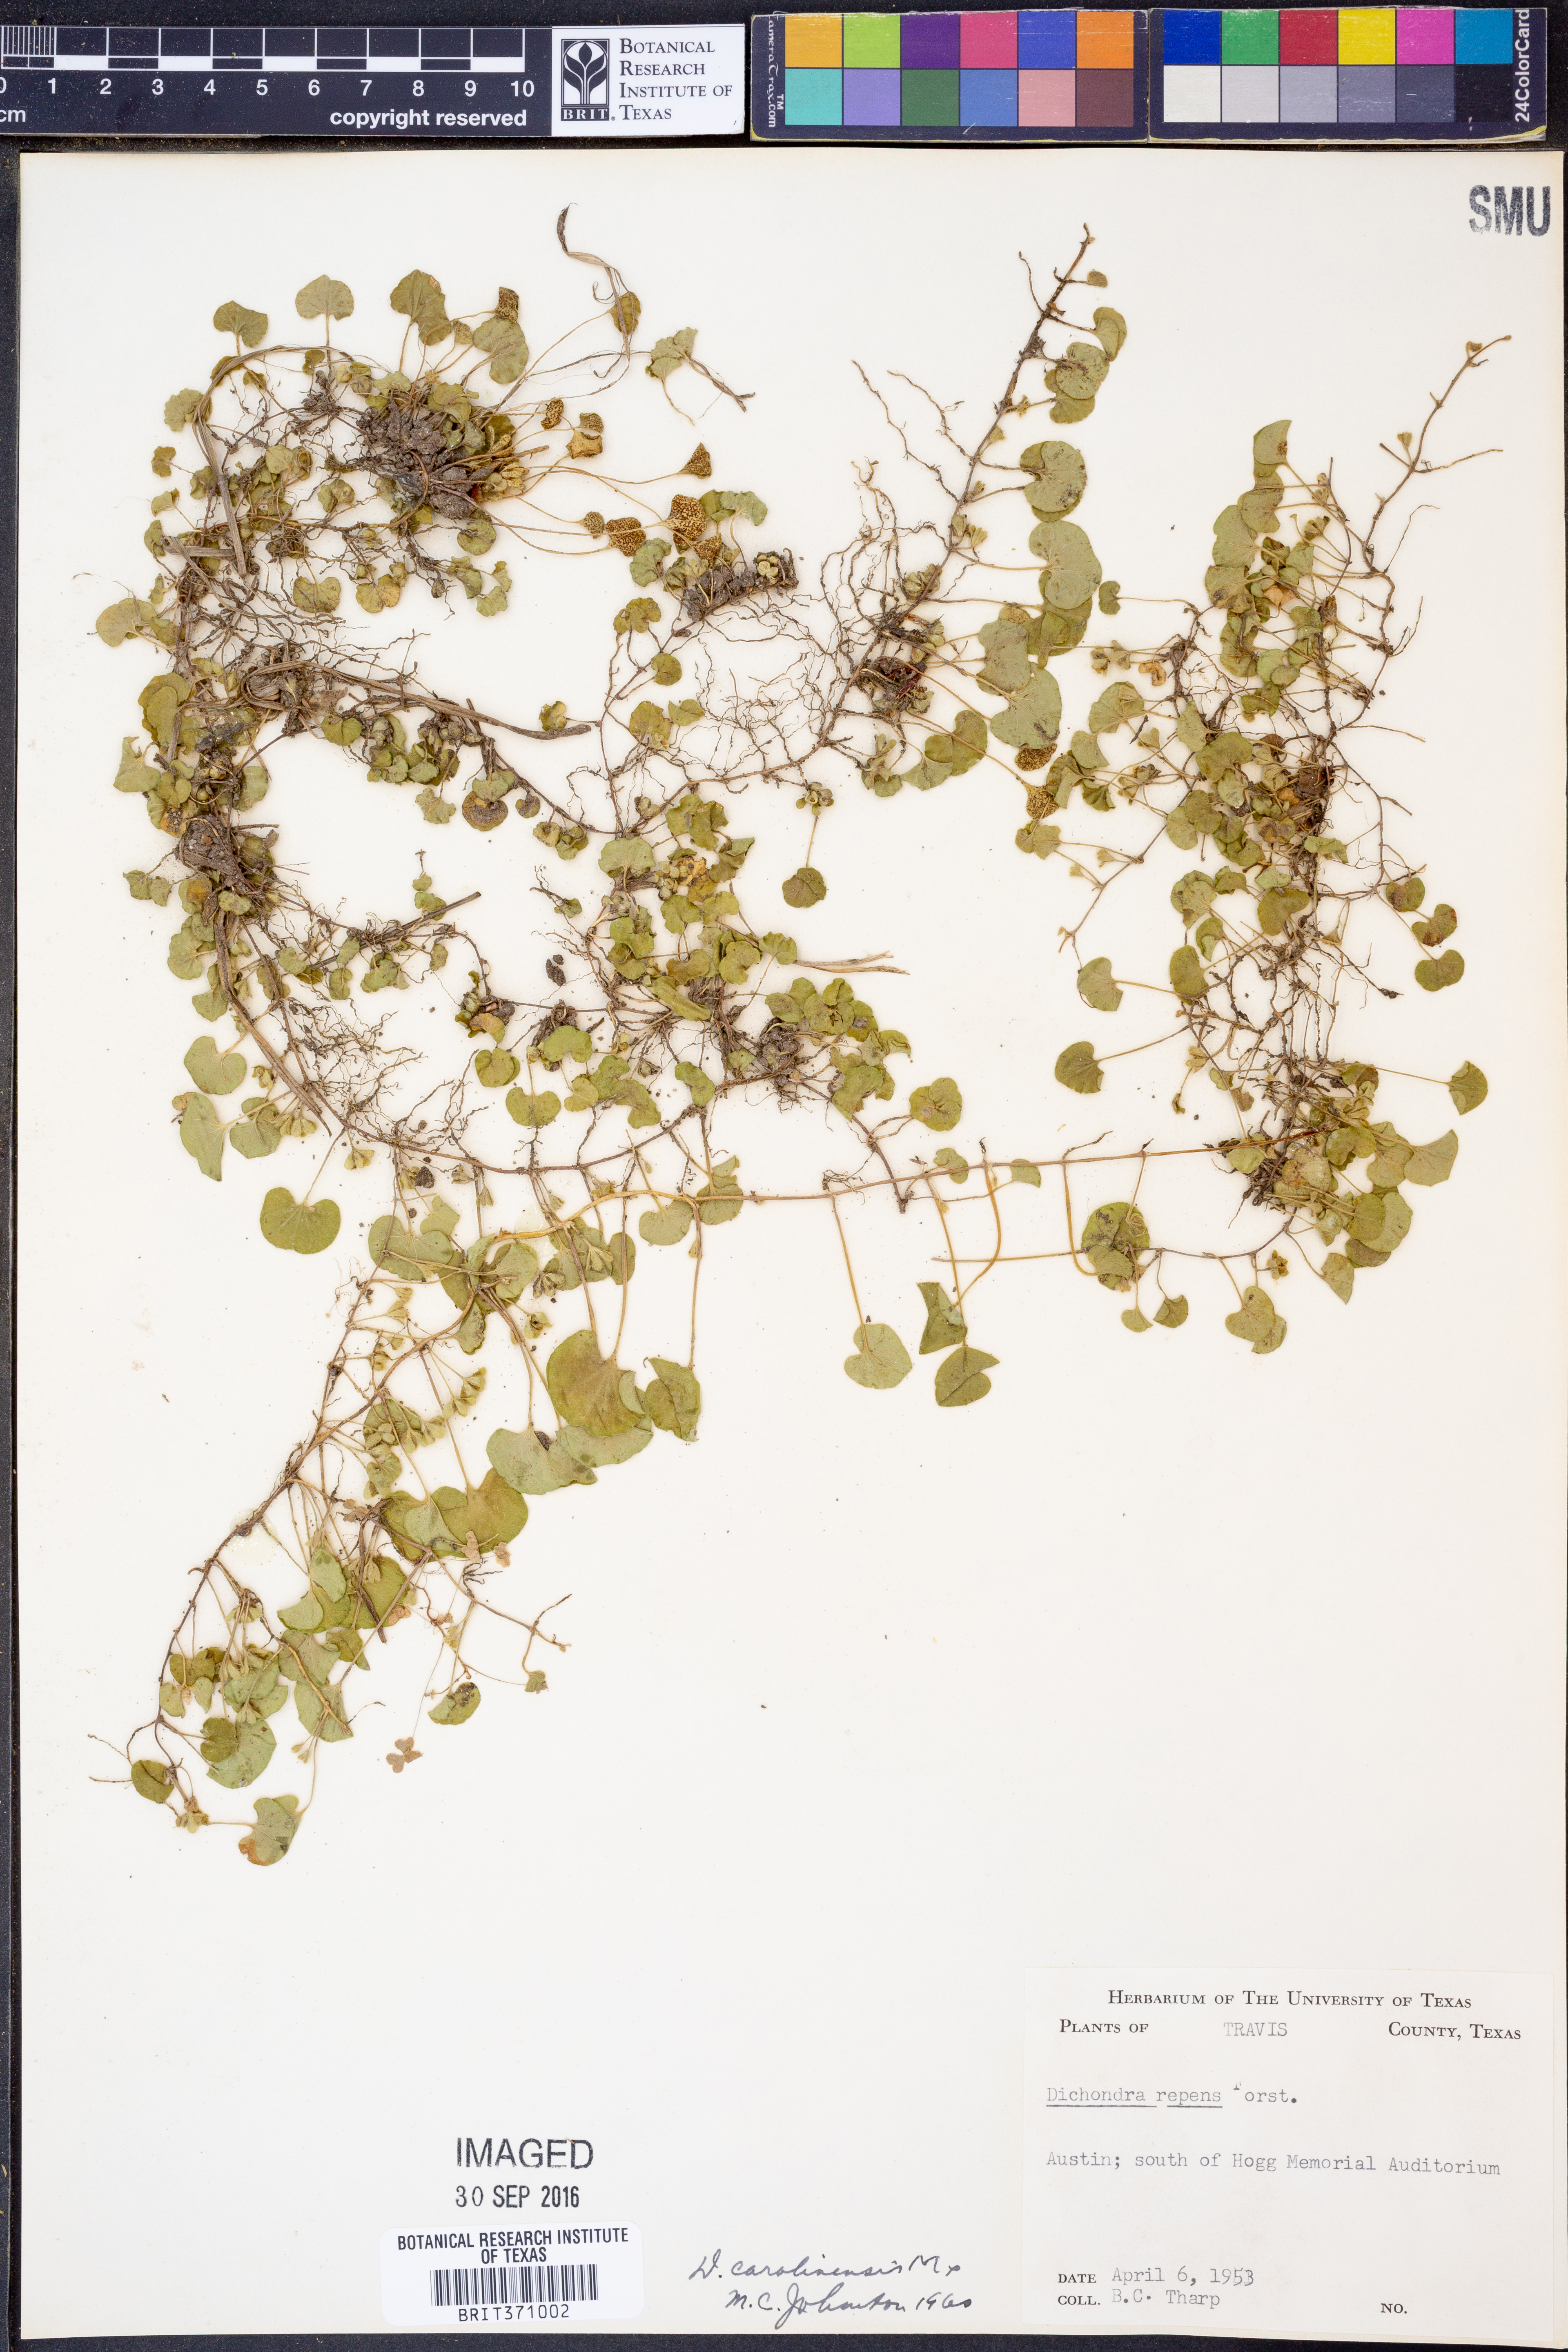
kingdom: Plantae
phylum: Tracheophyta
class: Magnoliopsida
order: Solanales
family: Convolvulaceae
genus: Dichondra
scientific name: Dichondra carolinensis
